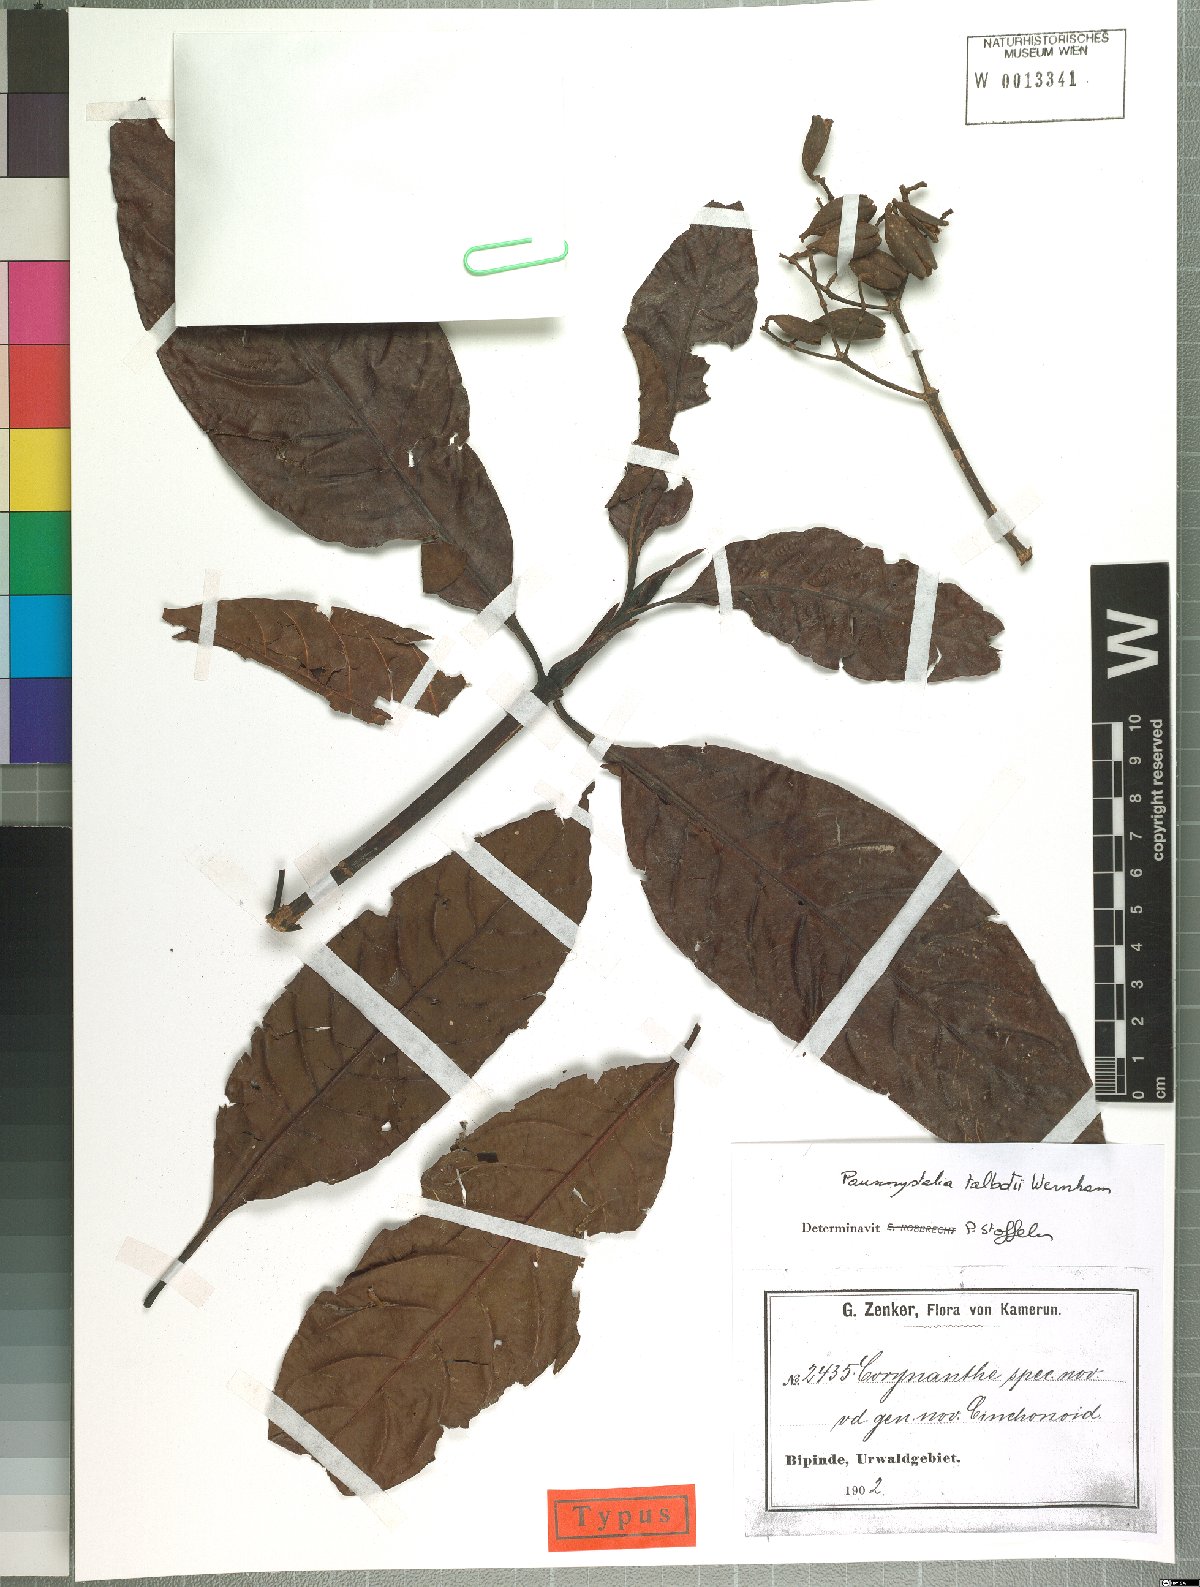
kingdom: Plantae
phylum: Tracheophyta
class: Magnoliopsida
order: Gentianales
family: Rubiaceae
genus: Corynanthe
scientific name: Corynanthe talbotii
